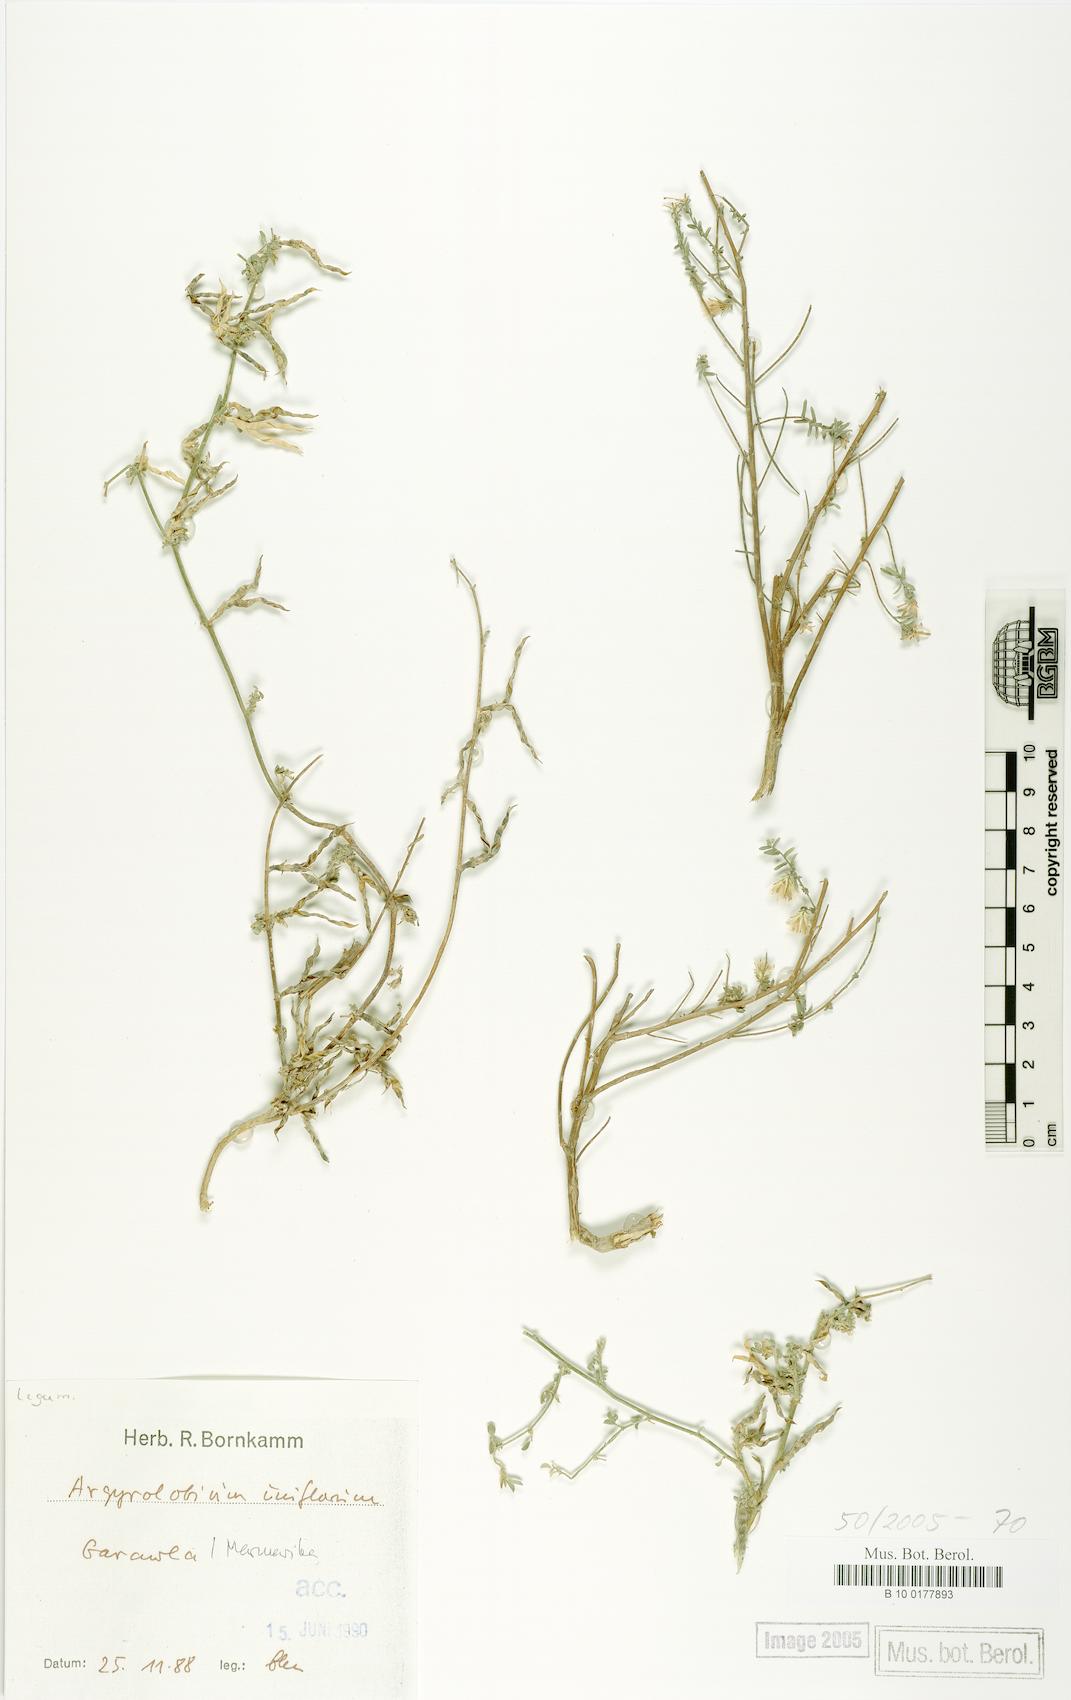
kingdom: Plantae
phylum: Tracheophyta
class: Magnoliopsida
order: Fabales
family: Fabaceae
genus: Argyrolobium
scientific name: Argyrolobium uniflorum
